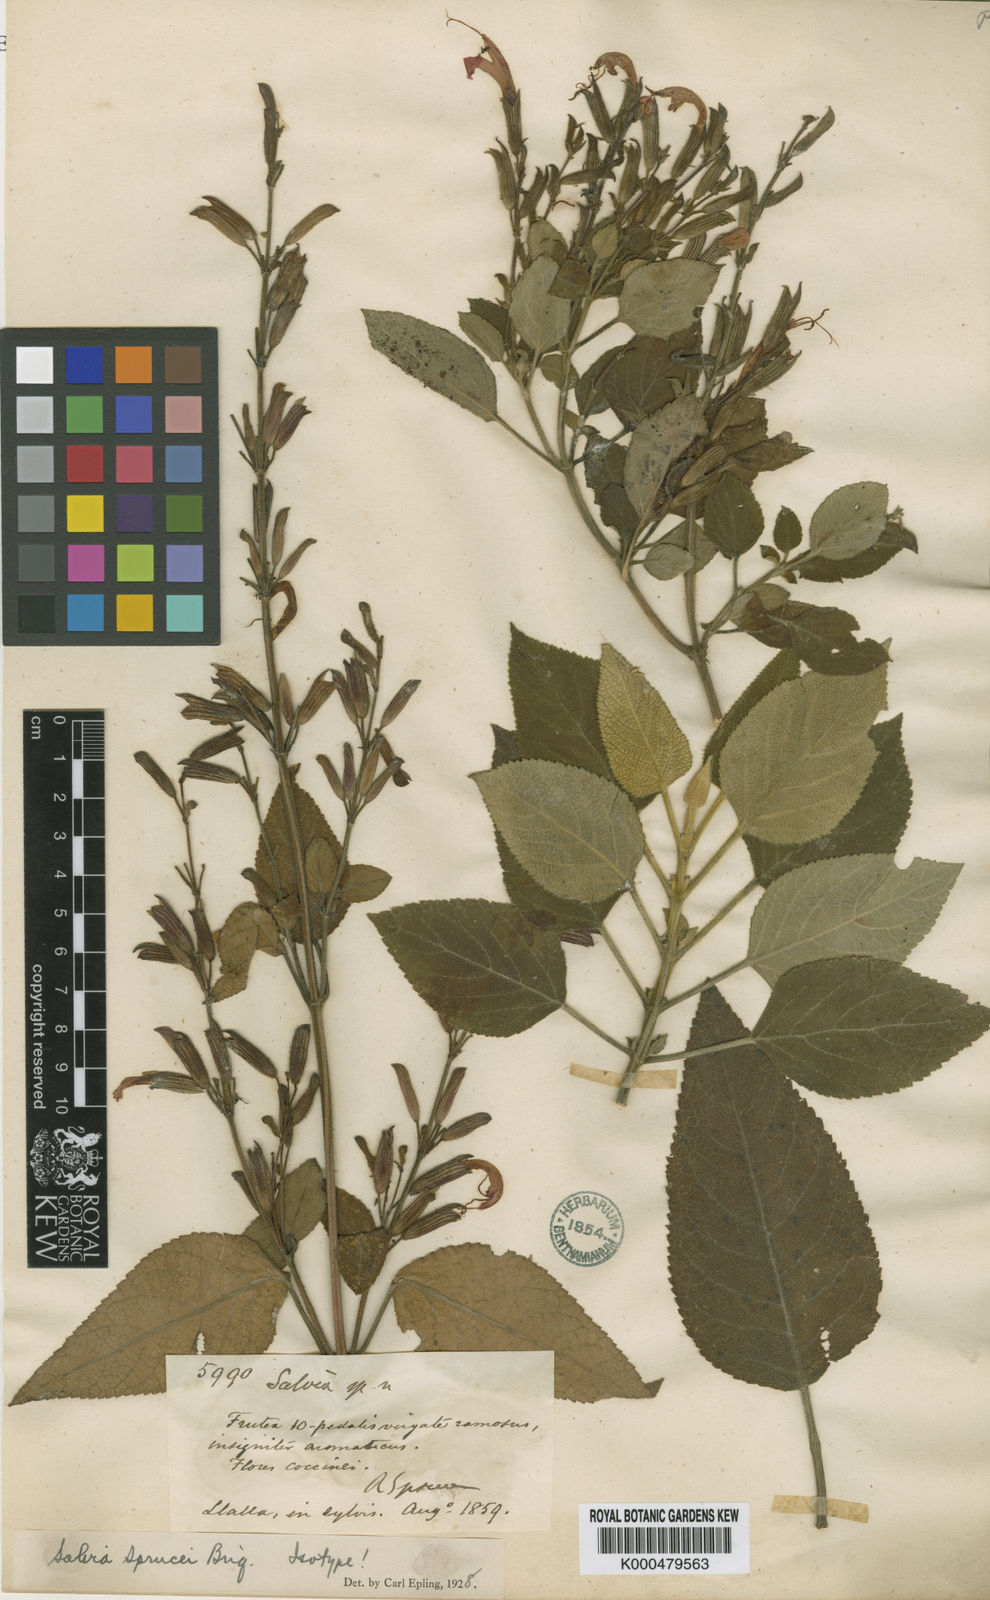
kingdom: Plantae
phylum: Tracheophyta
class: Magnoliopsida
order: Lamiales
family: Lamiaceae
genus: Salvia
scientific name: Salvia sprucei
